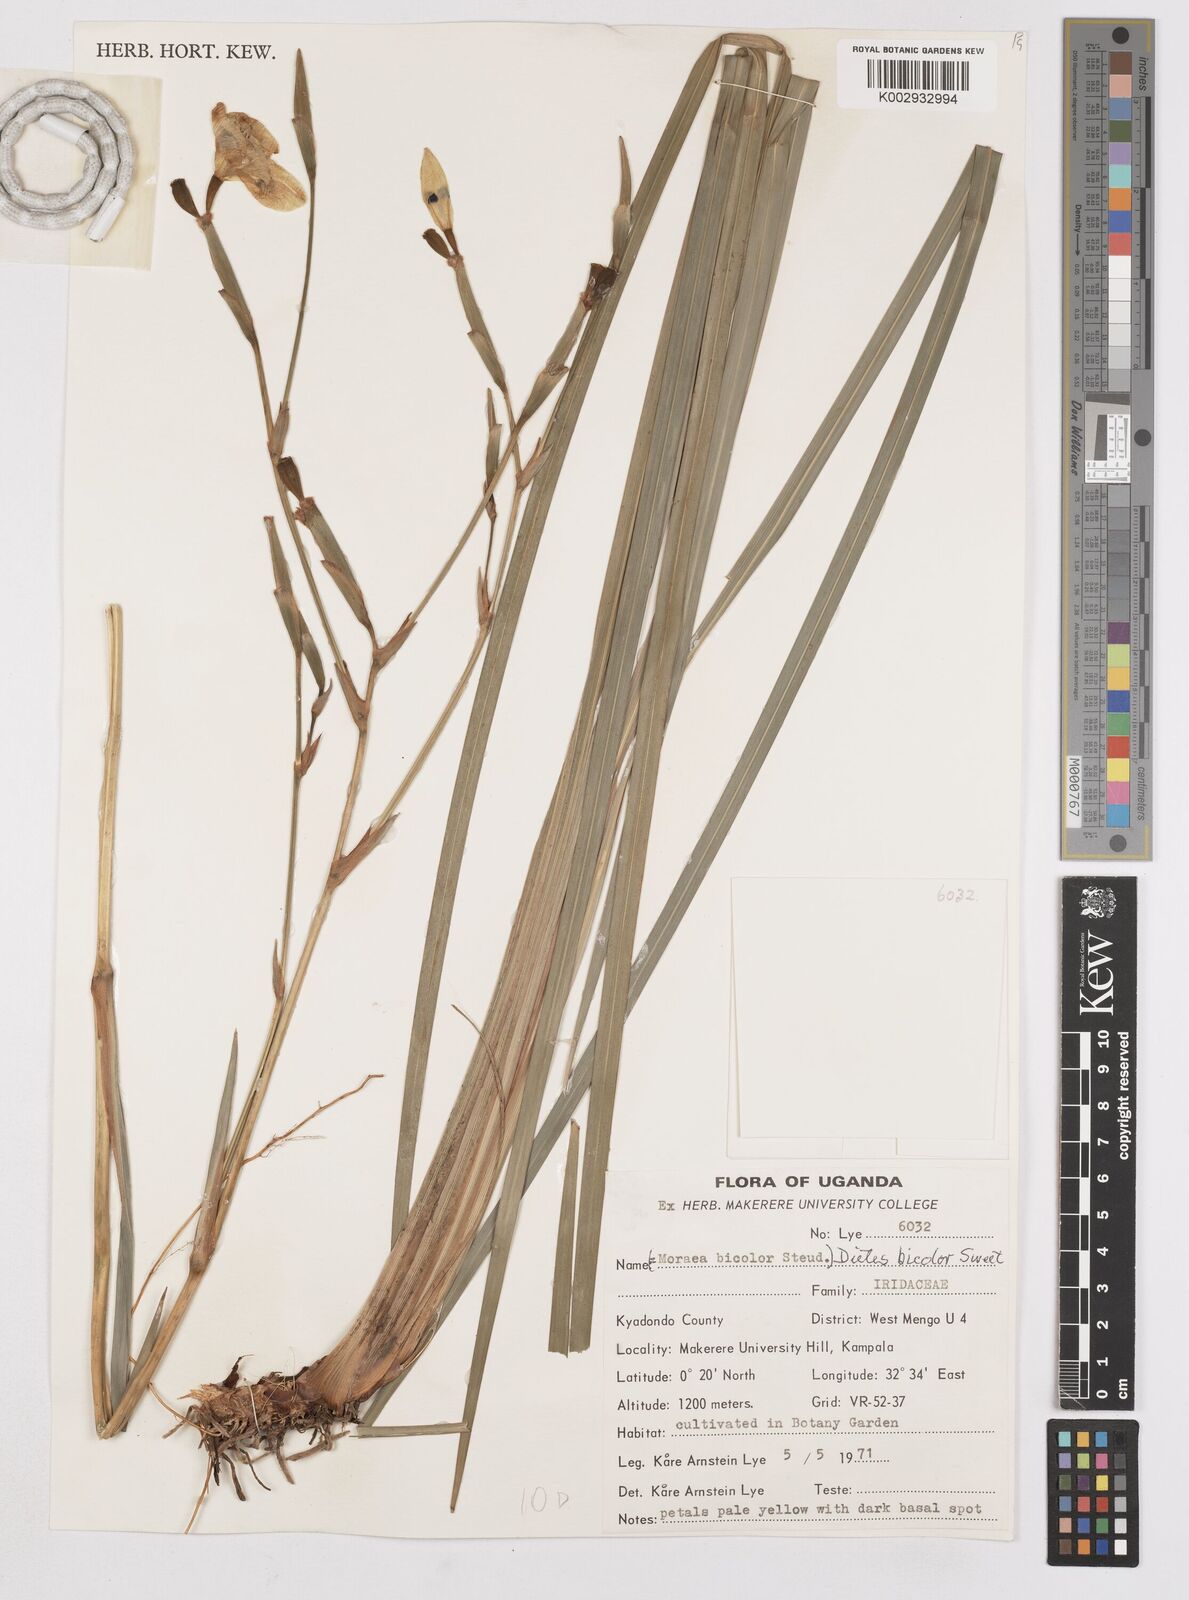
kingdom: Plantae
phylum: Tracheophyta
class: Liliopsida
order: Asparagales
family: Iridaceae
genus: Dietes
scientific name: Dietes bicolor
